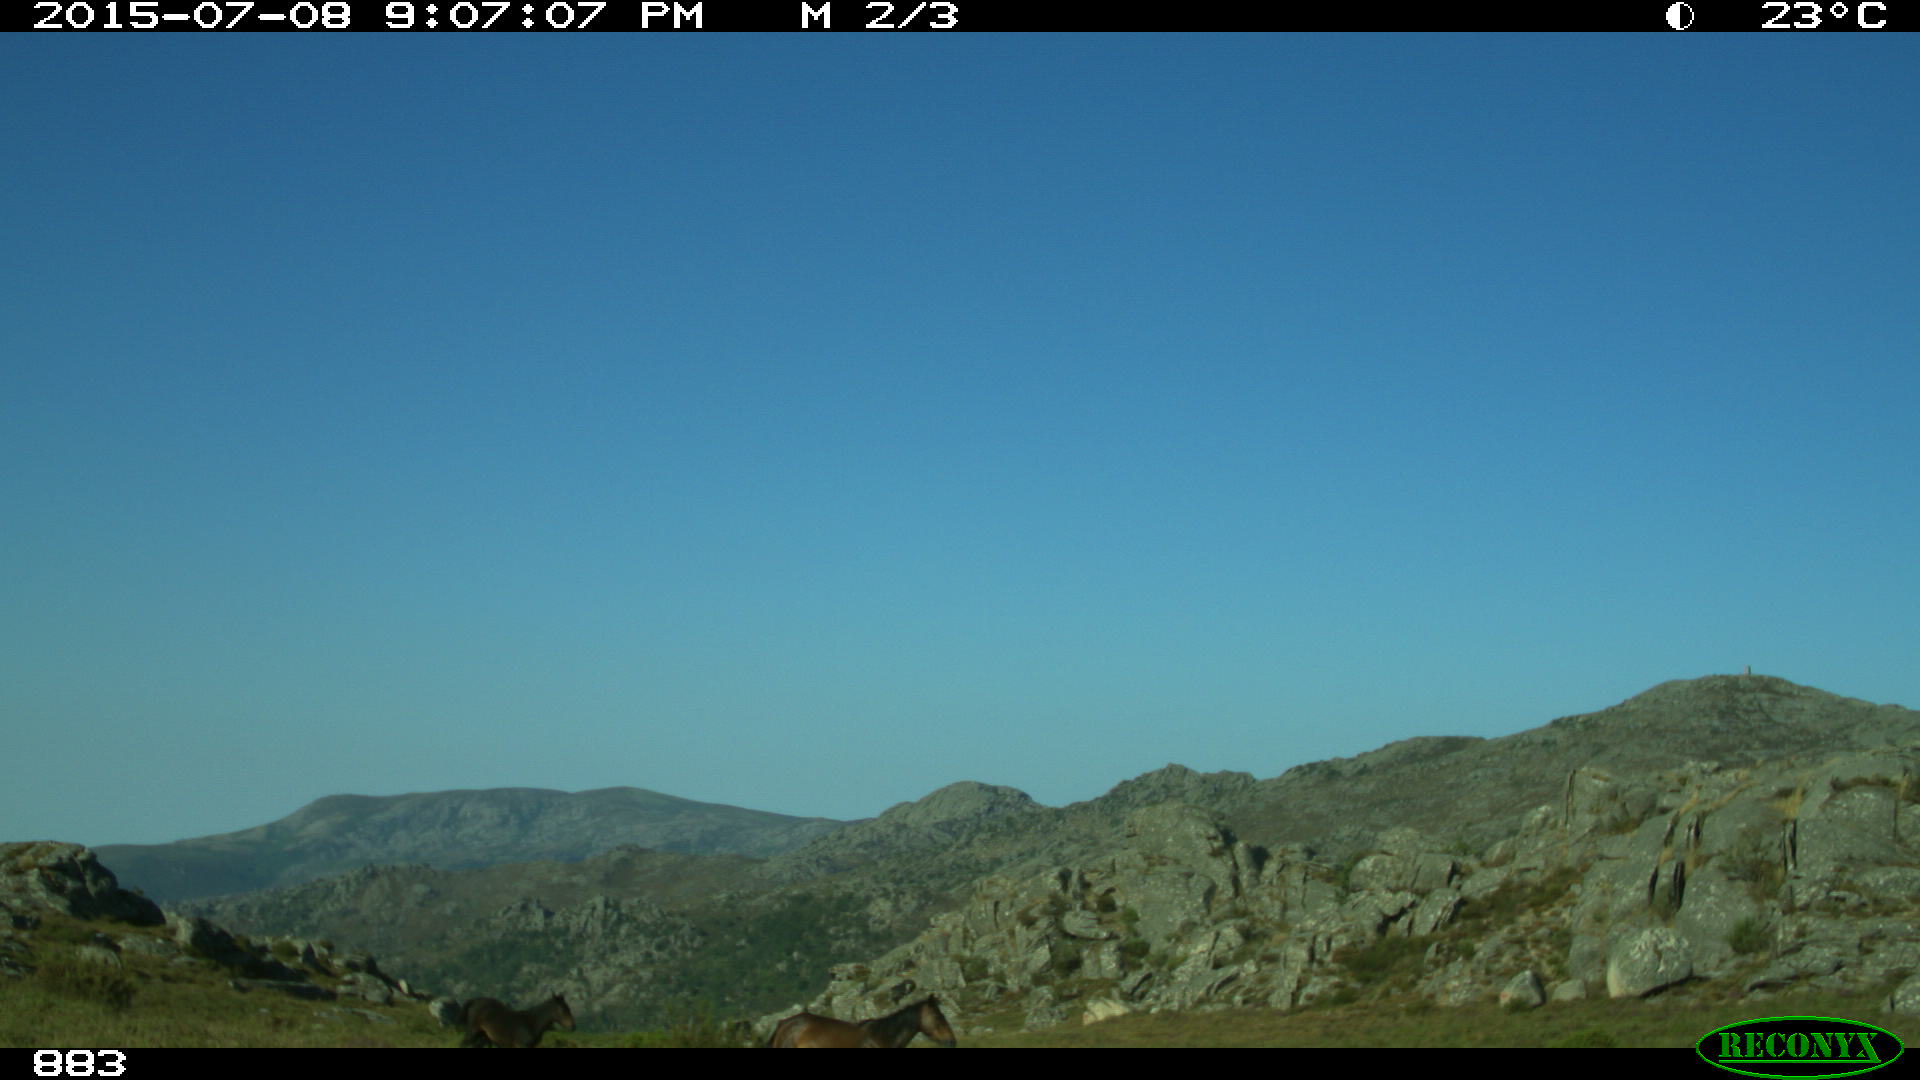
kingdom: Animalia
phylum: Chordata
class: Mammalia
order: Perissodactyla
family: Equidae
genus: Equus
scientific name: Equus caballus
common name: Horse
